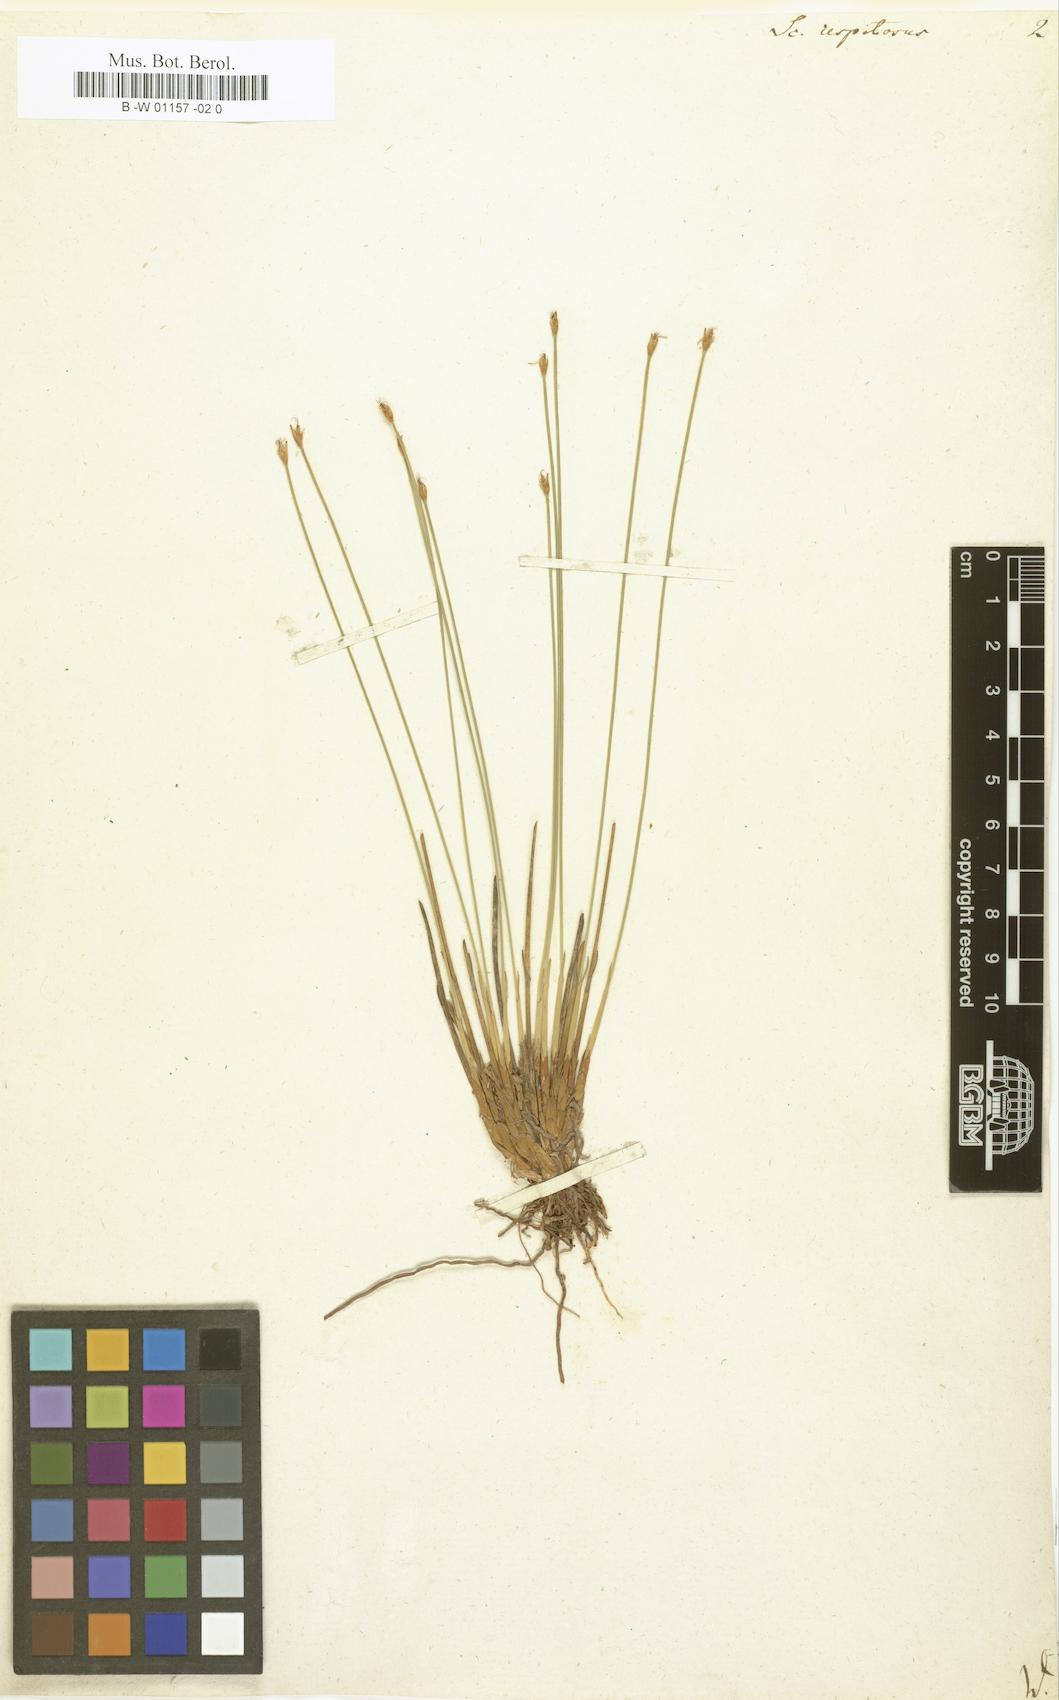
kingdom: Plantae
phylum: Tracheophyta
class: Liliopsida
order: Poales
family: Cyperaceae
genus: Trichophorum
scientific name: Trichophorum cespitosum
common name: Cespitose bulrush
